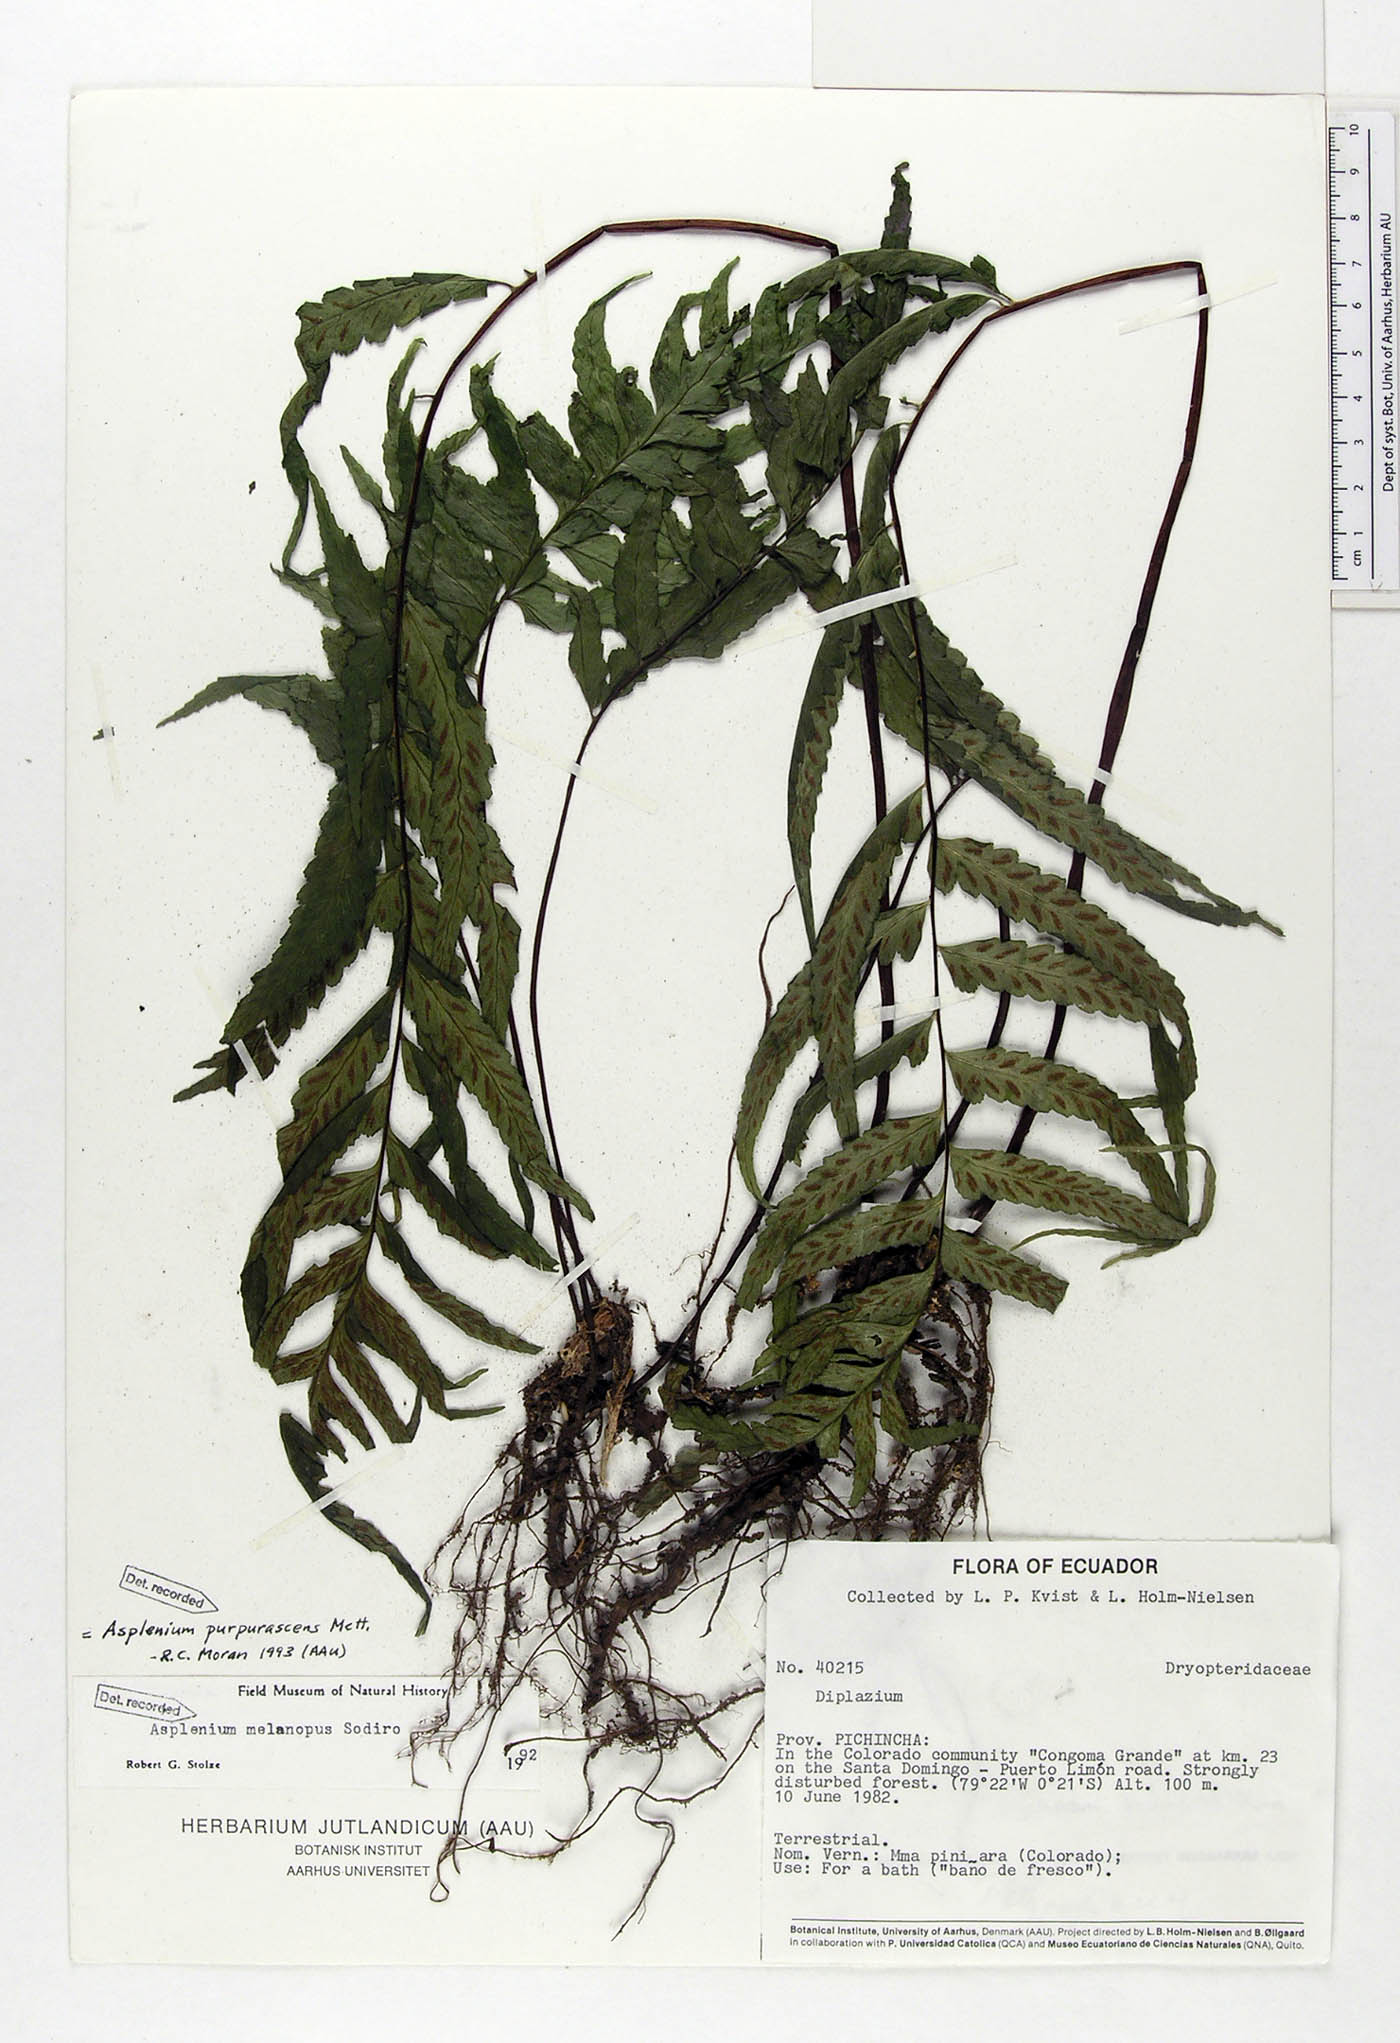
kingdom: Plantae
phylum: Tracheophyta
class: Polypodiopsida
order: Polypodiales
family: Aspleniaceae
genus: Hymenasplenium
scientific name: Hymenasplenium purpurascens
